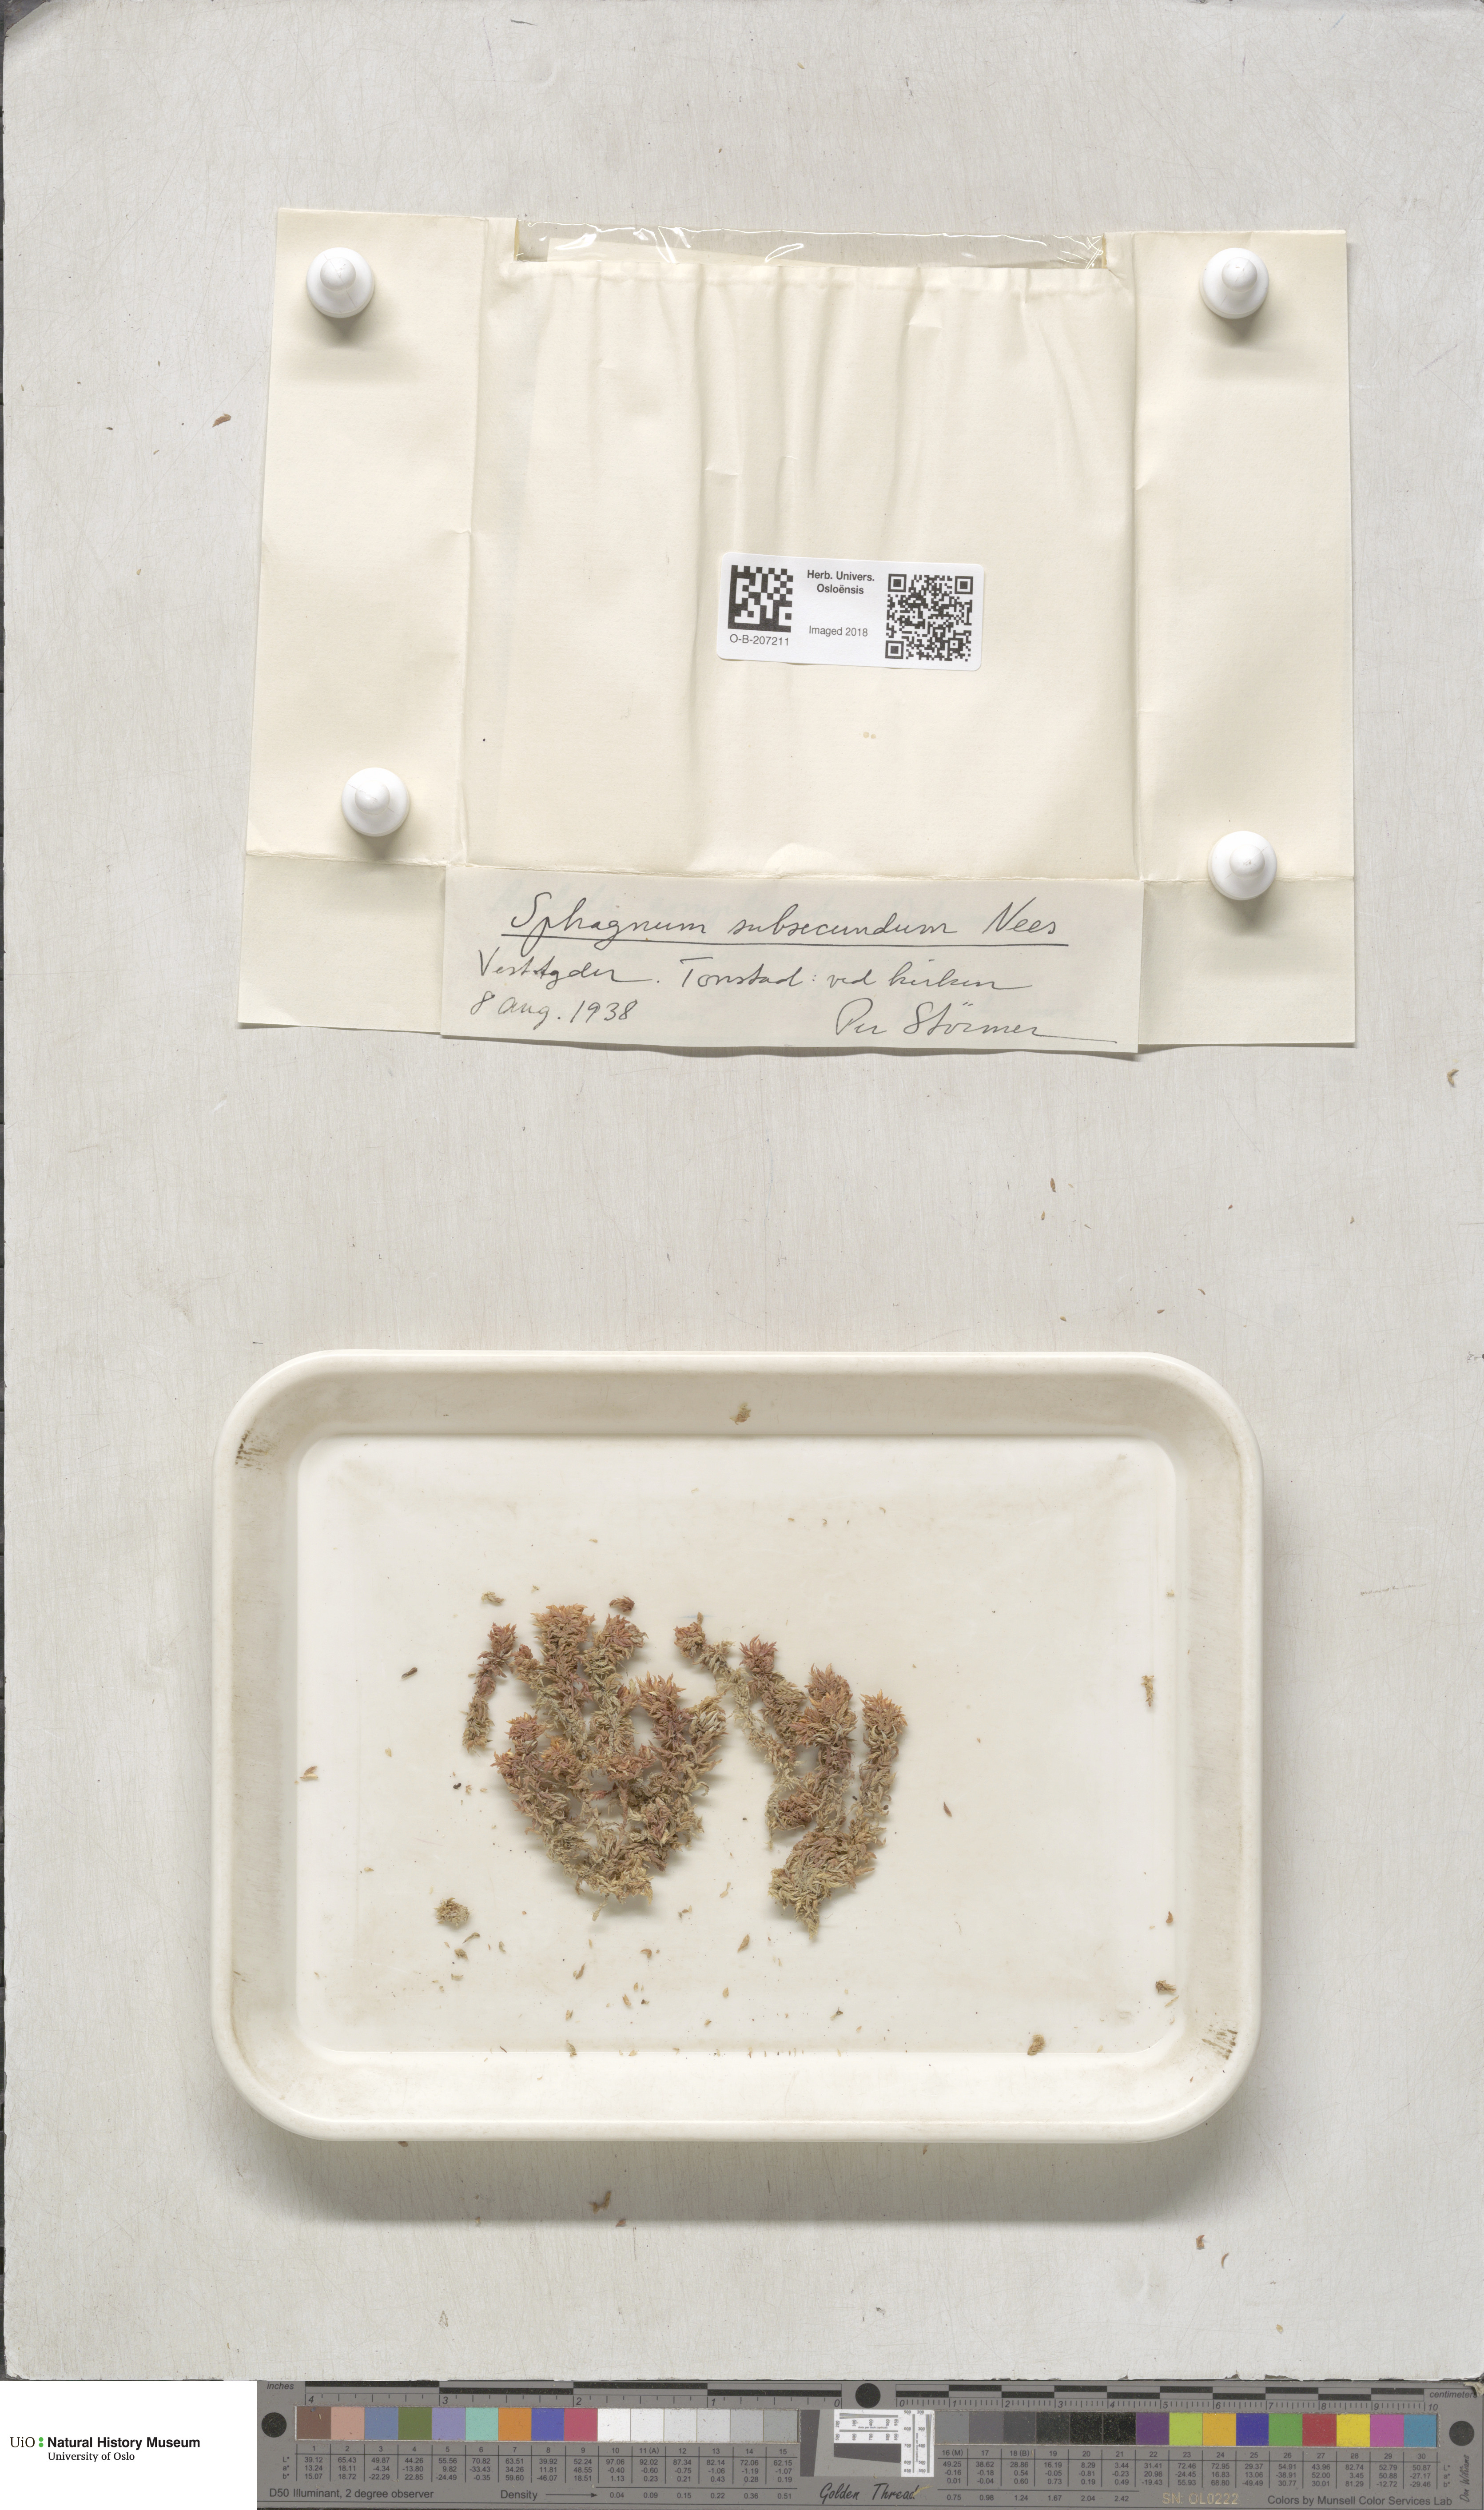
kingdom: Plantae
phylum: Bryophyta
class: Sphagnopsida
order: Sphagnales
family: Sphagnaceae
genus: Sphagnum
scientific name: Sphagnum subsecundum
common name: Orange peat moss
